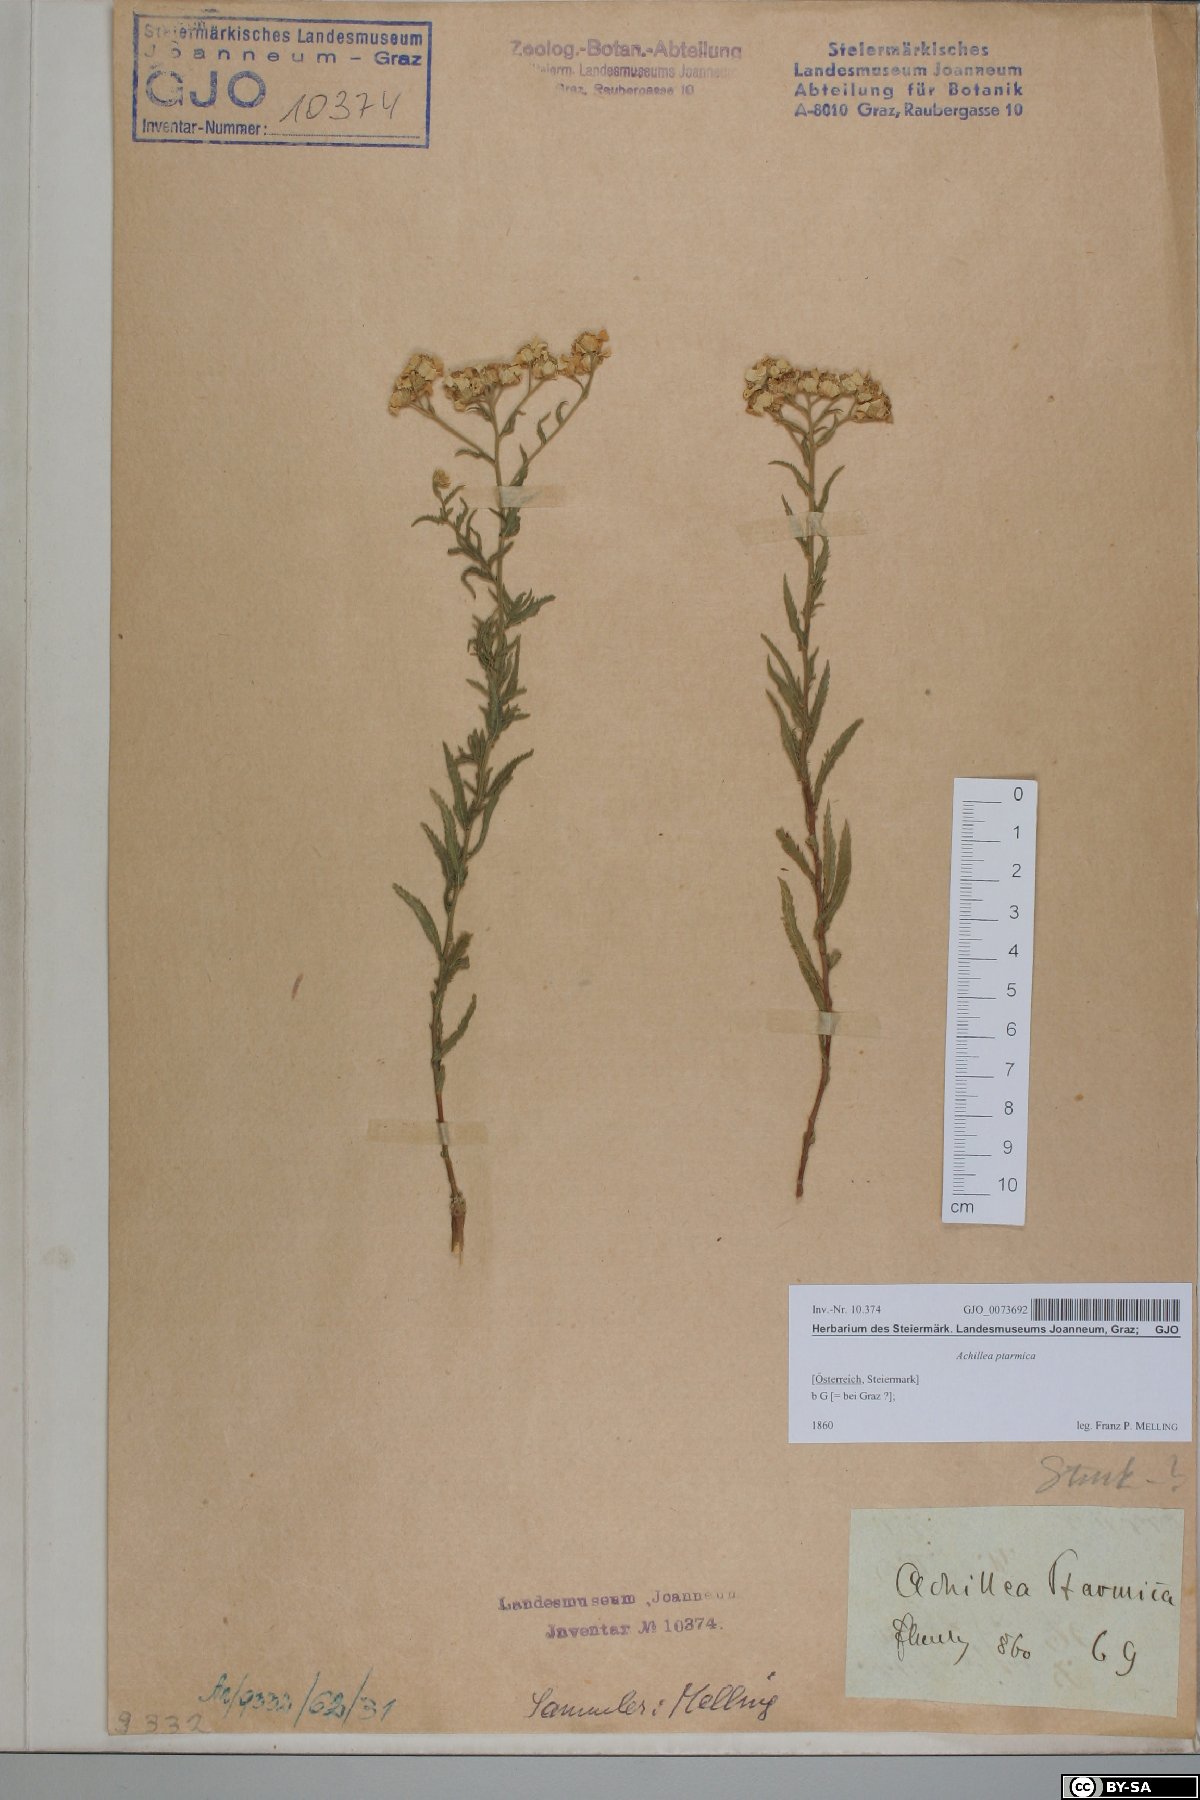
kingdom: Plantae
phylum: Tracheophyta
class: Magnoliopsida
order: Asterales
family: Asteraceae
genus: Achillea
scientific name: Achillea ptarmica
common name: Sneezeweed
